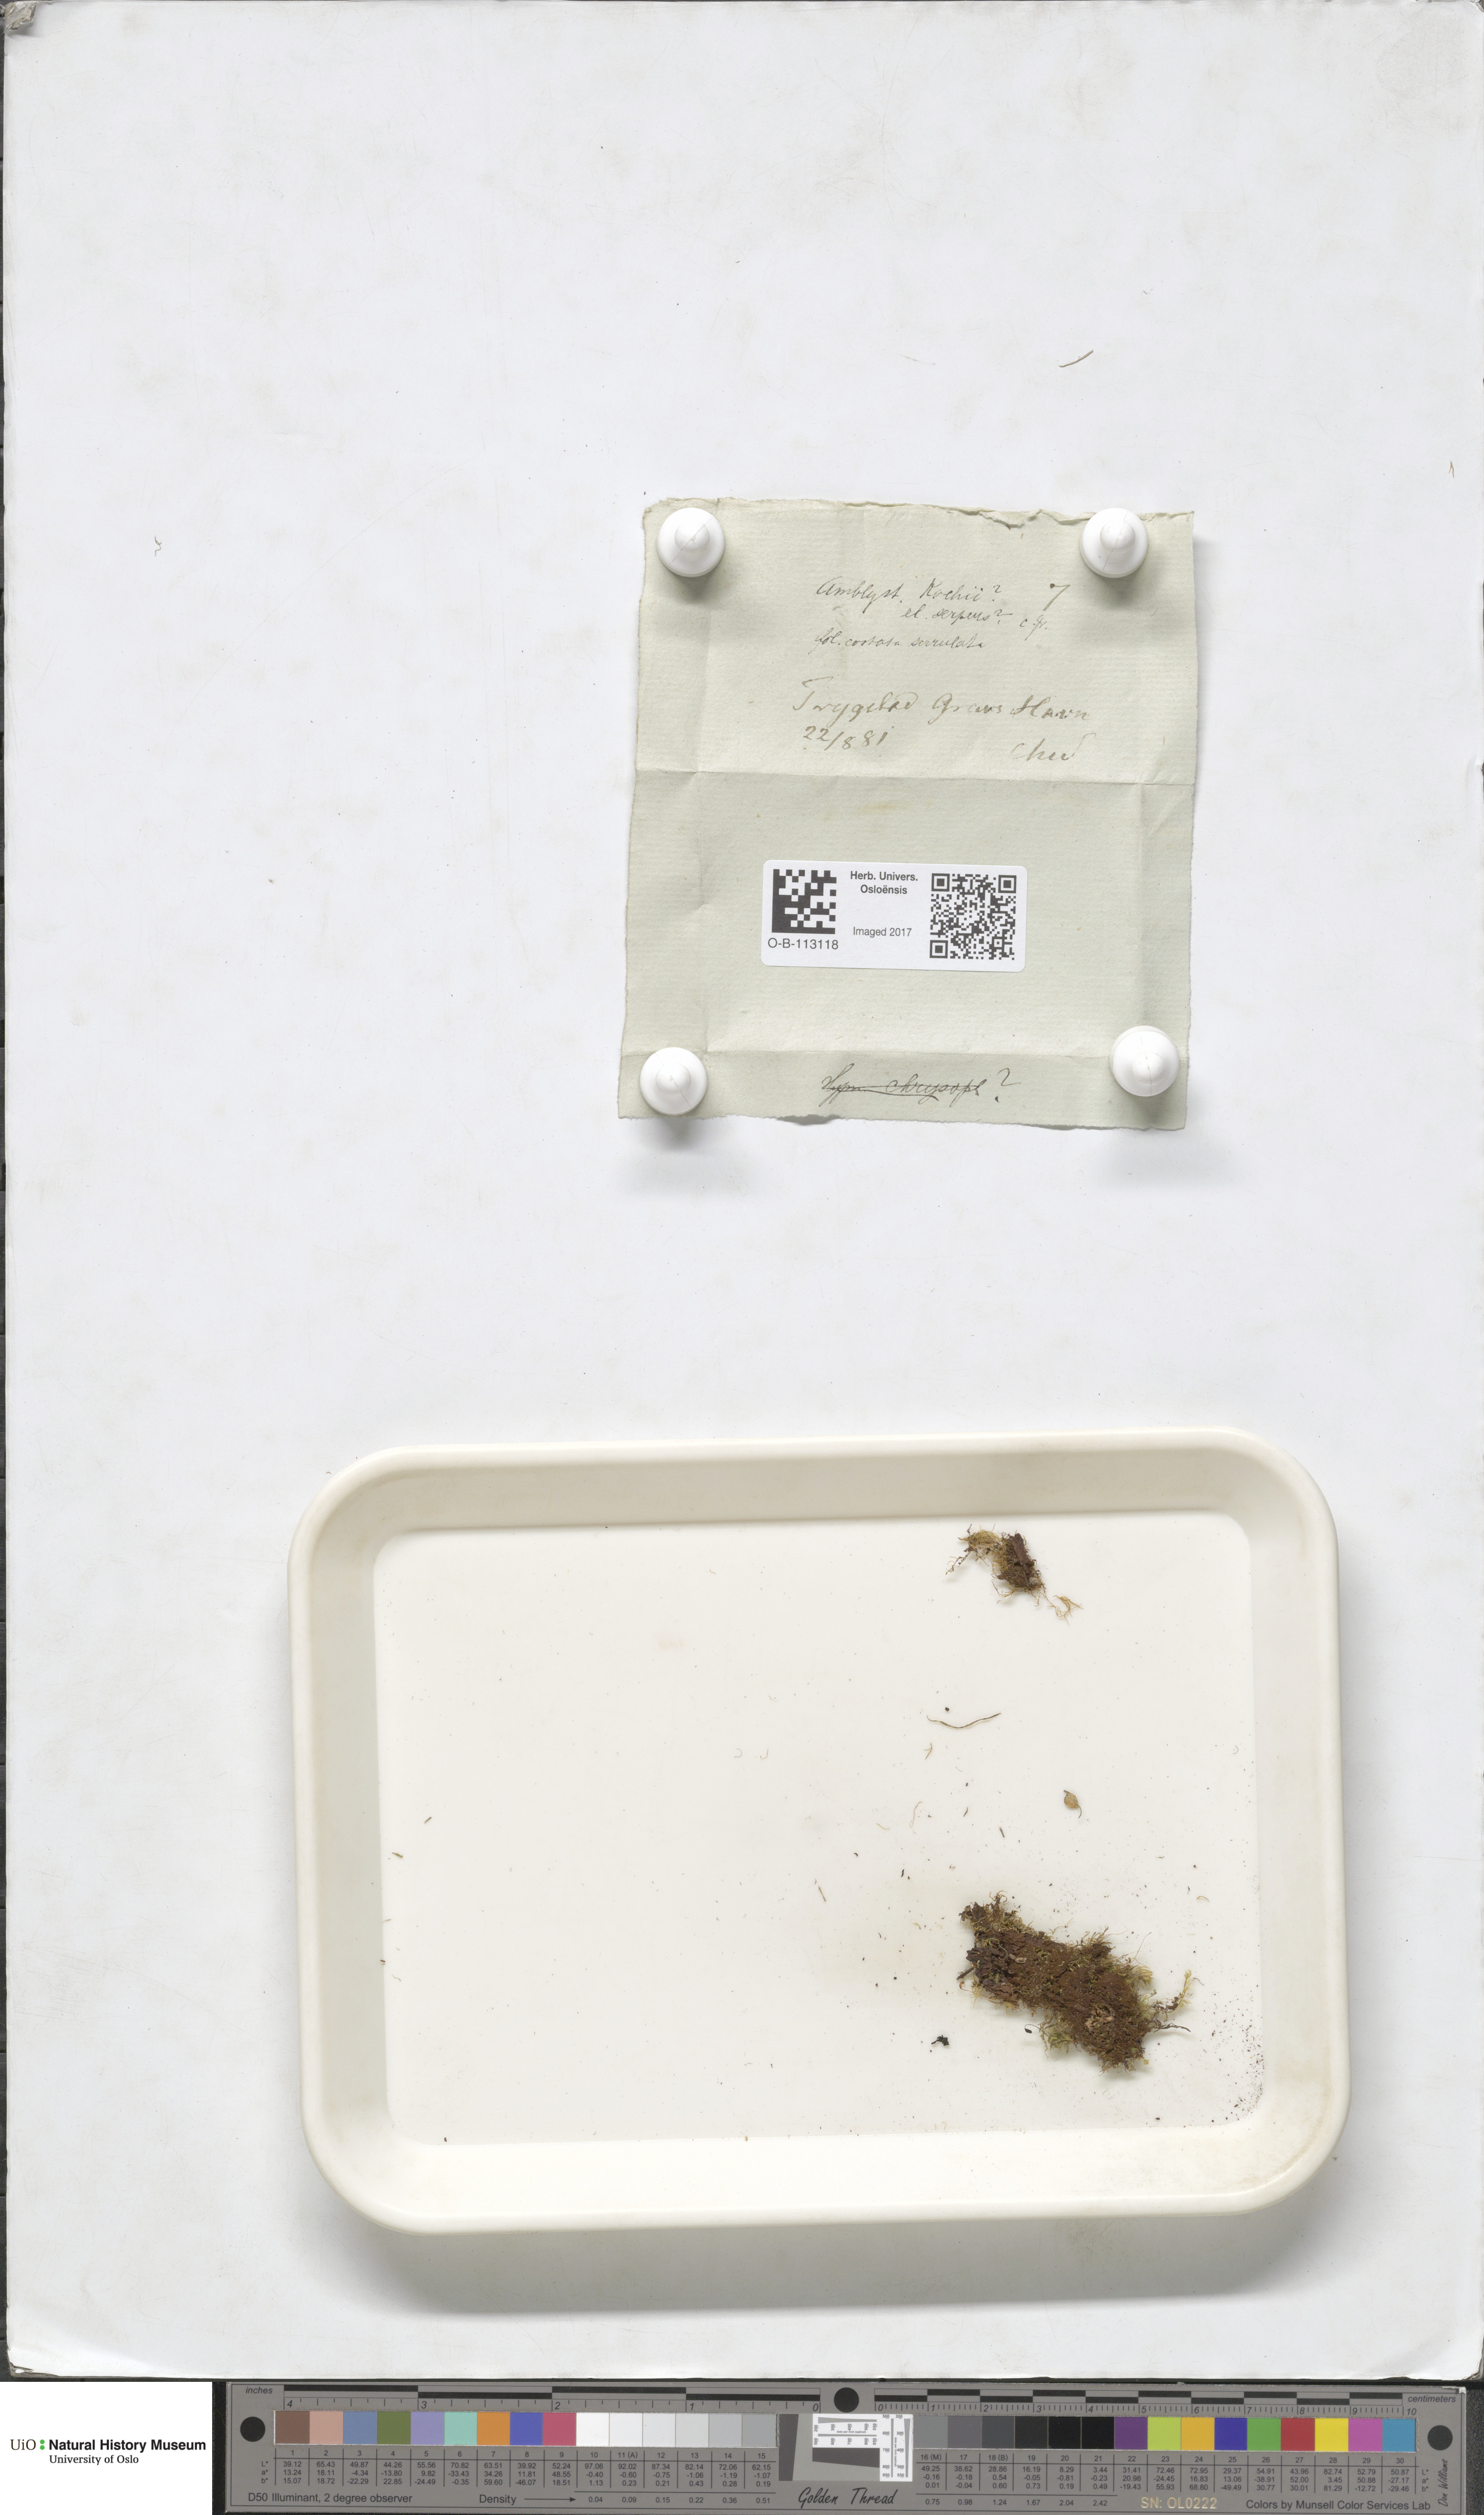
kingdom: Plantae
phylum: Bryophyta
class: Bryopsida
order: Hypnales
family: Amblystegiaceae
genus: Amblystegium
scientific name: Amblystegium serpens
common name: Jurkatzka's feather moss
